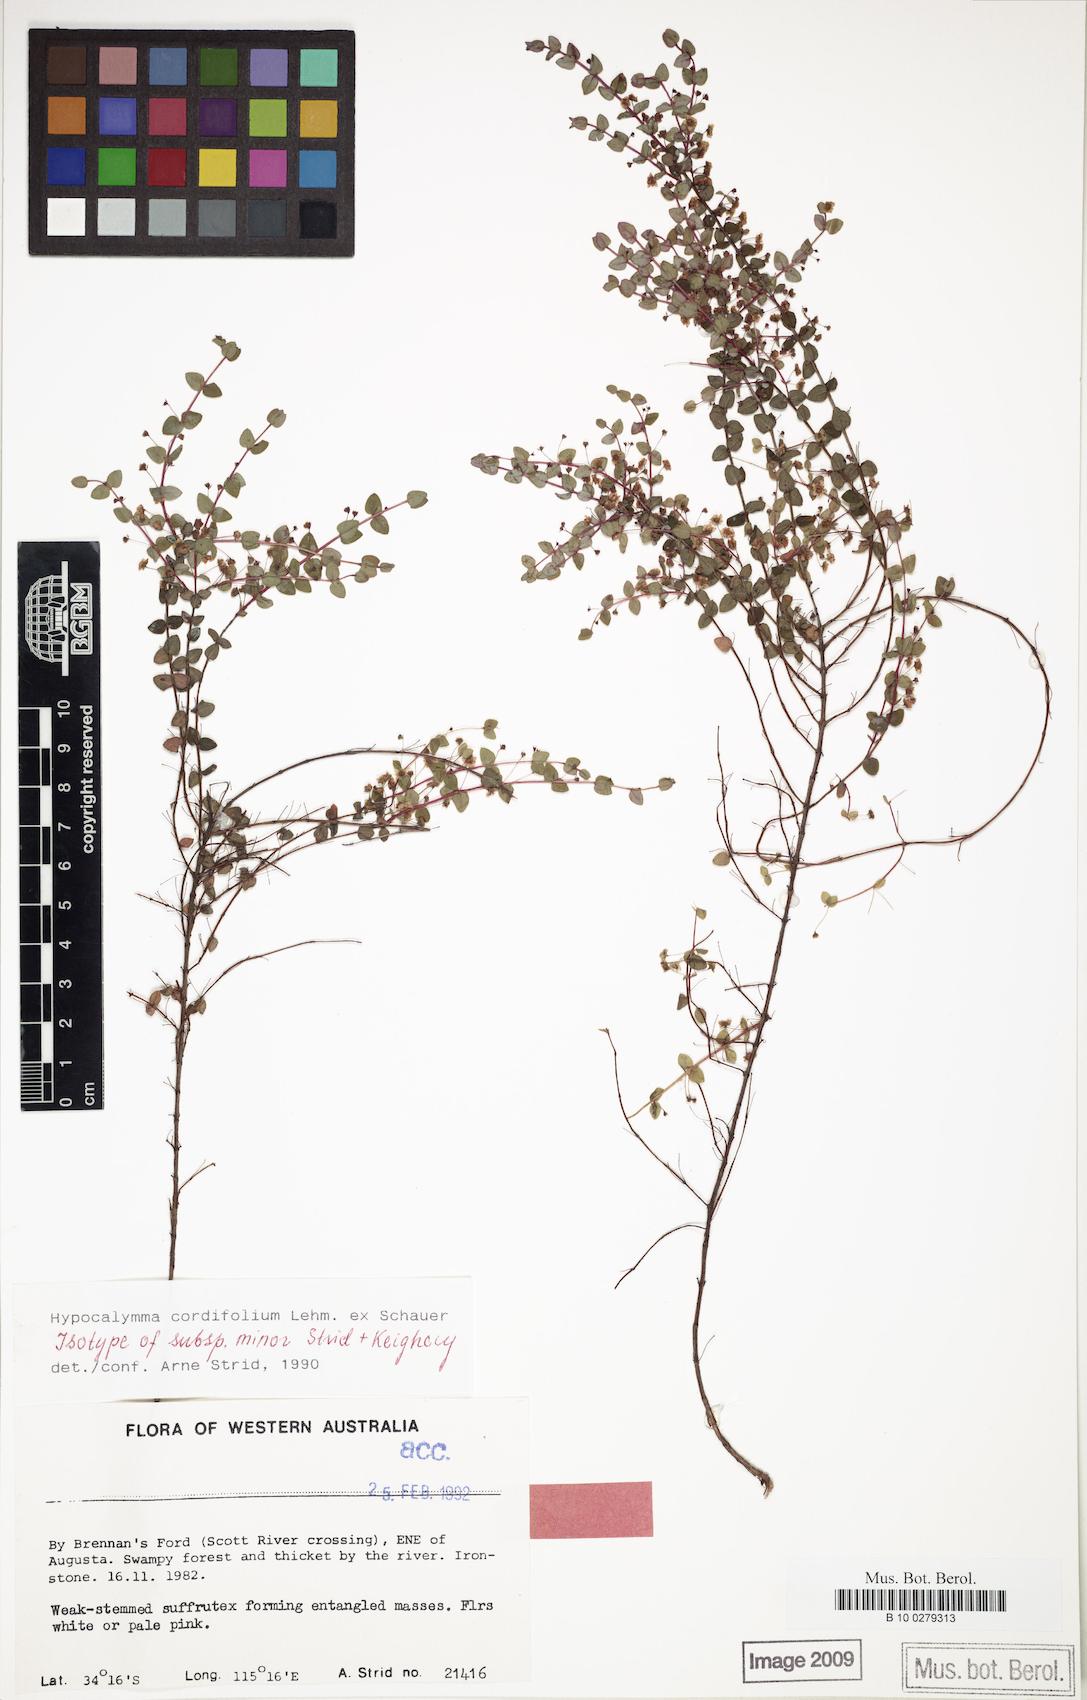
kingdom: Plantae
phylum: Tracheophyta
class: Magnoliopsida
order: Myrtales
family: Myrtaceae
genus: Hypocalymma
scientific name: Hypocalymma minus
